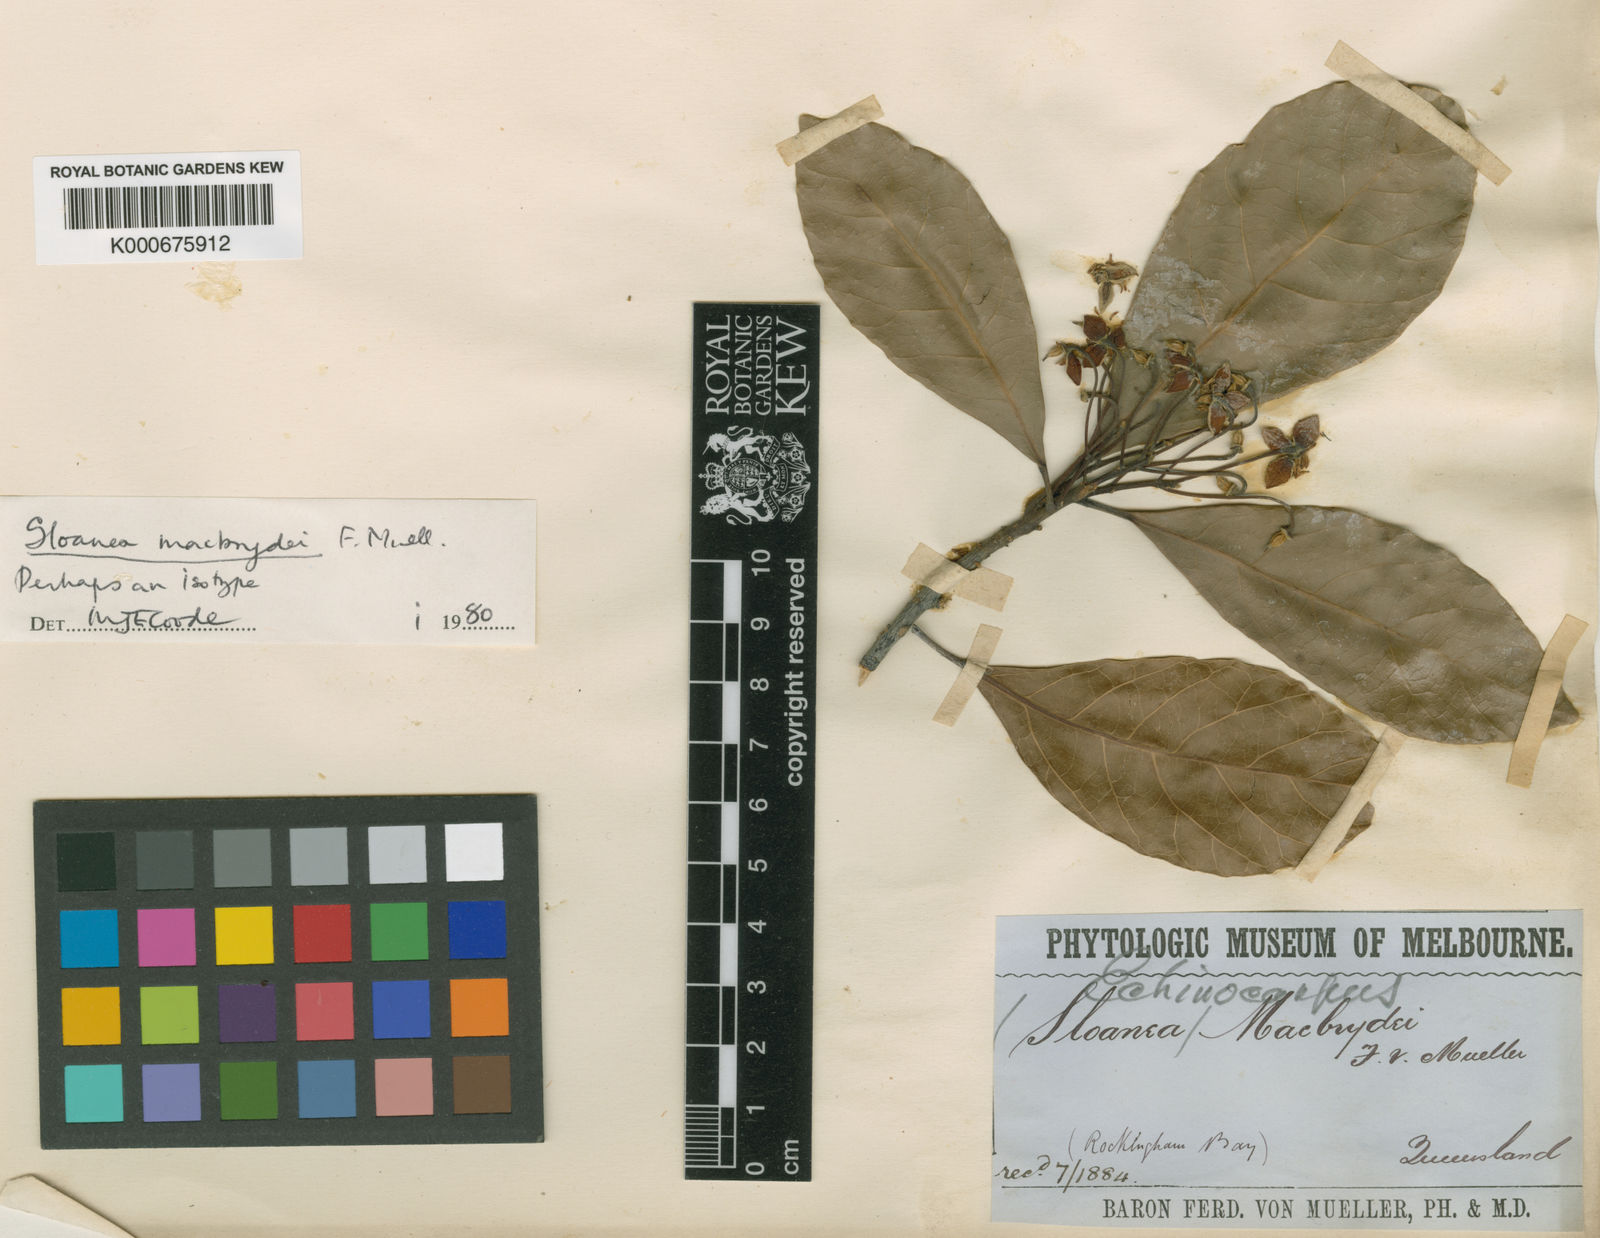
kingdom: Plantae
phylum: Tracheophyta
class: Magnoliopsida
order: Oxalidales
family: Elaeocarpaceae
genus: Sloanea
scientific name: Sloanea macbrydei
